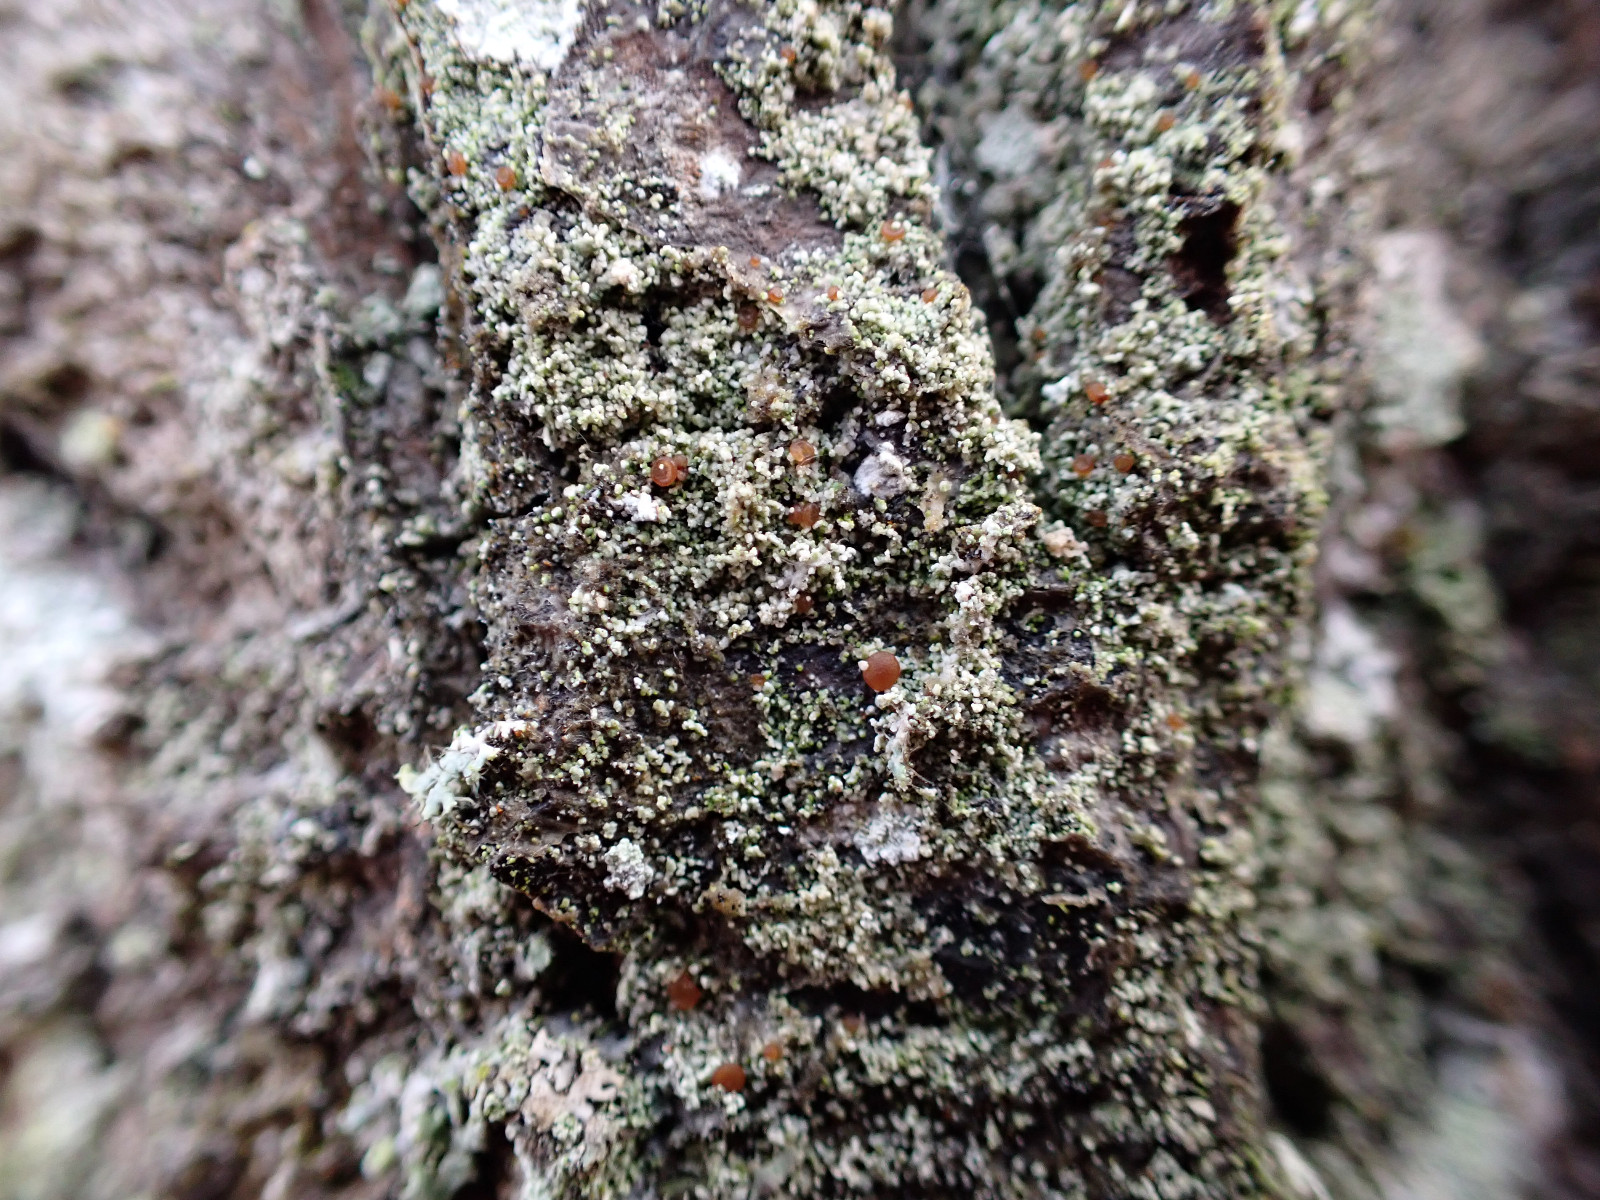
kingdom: Fungi
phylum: Ascomycota
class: Lecanoromycetes
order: Lecanorales
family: Ramalinaceae
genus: Bacidia
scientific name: Bacidia rubella
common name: rødbrun tensporelav
